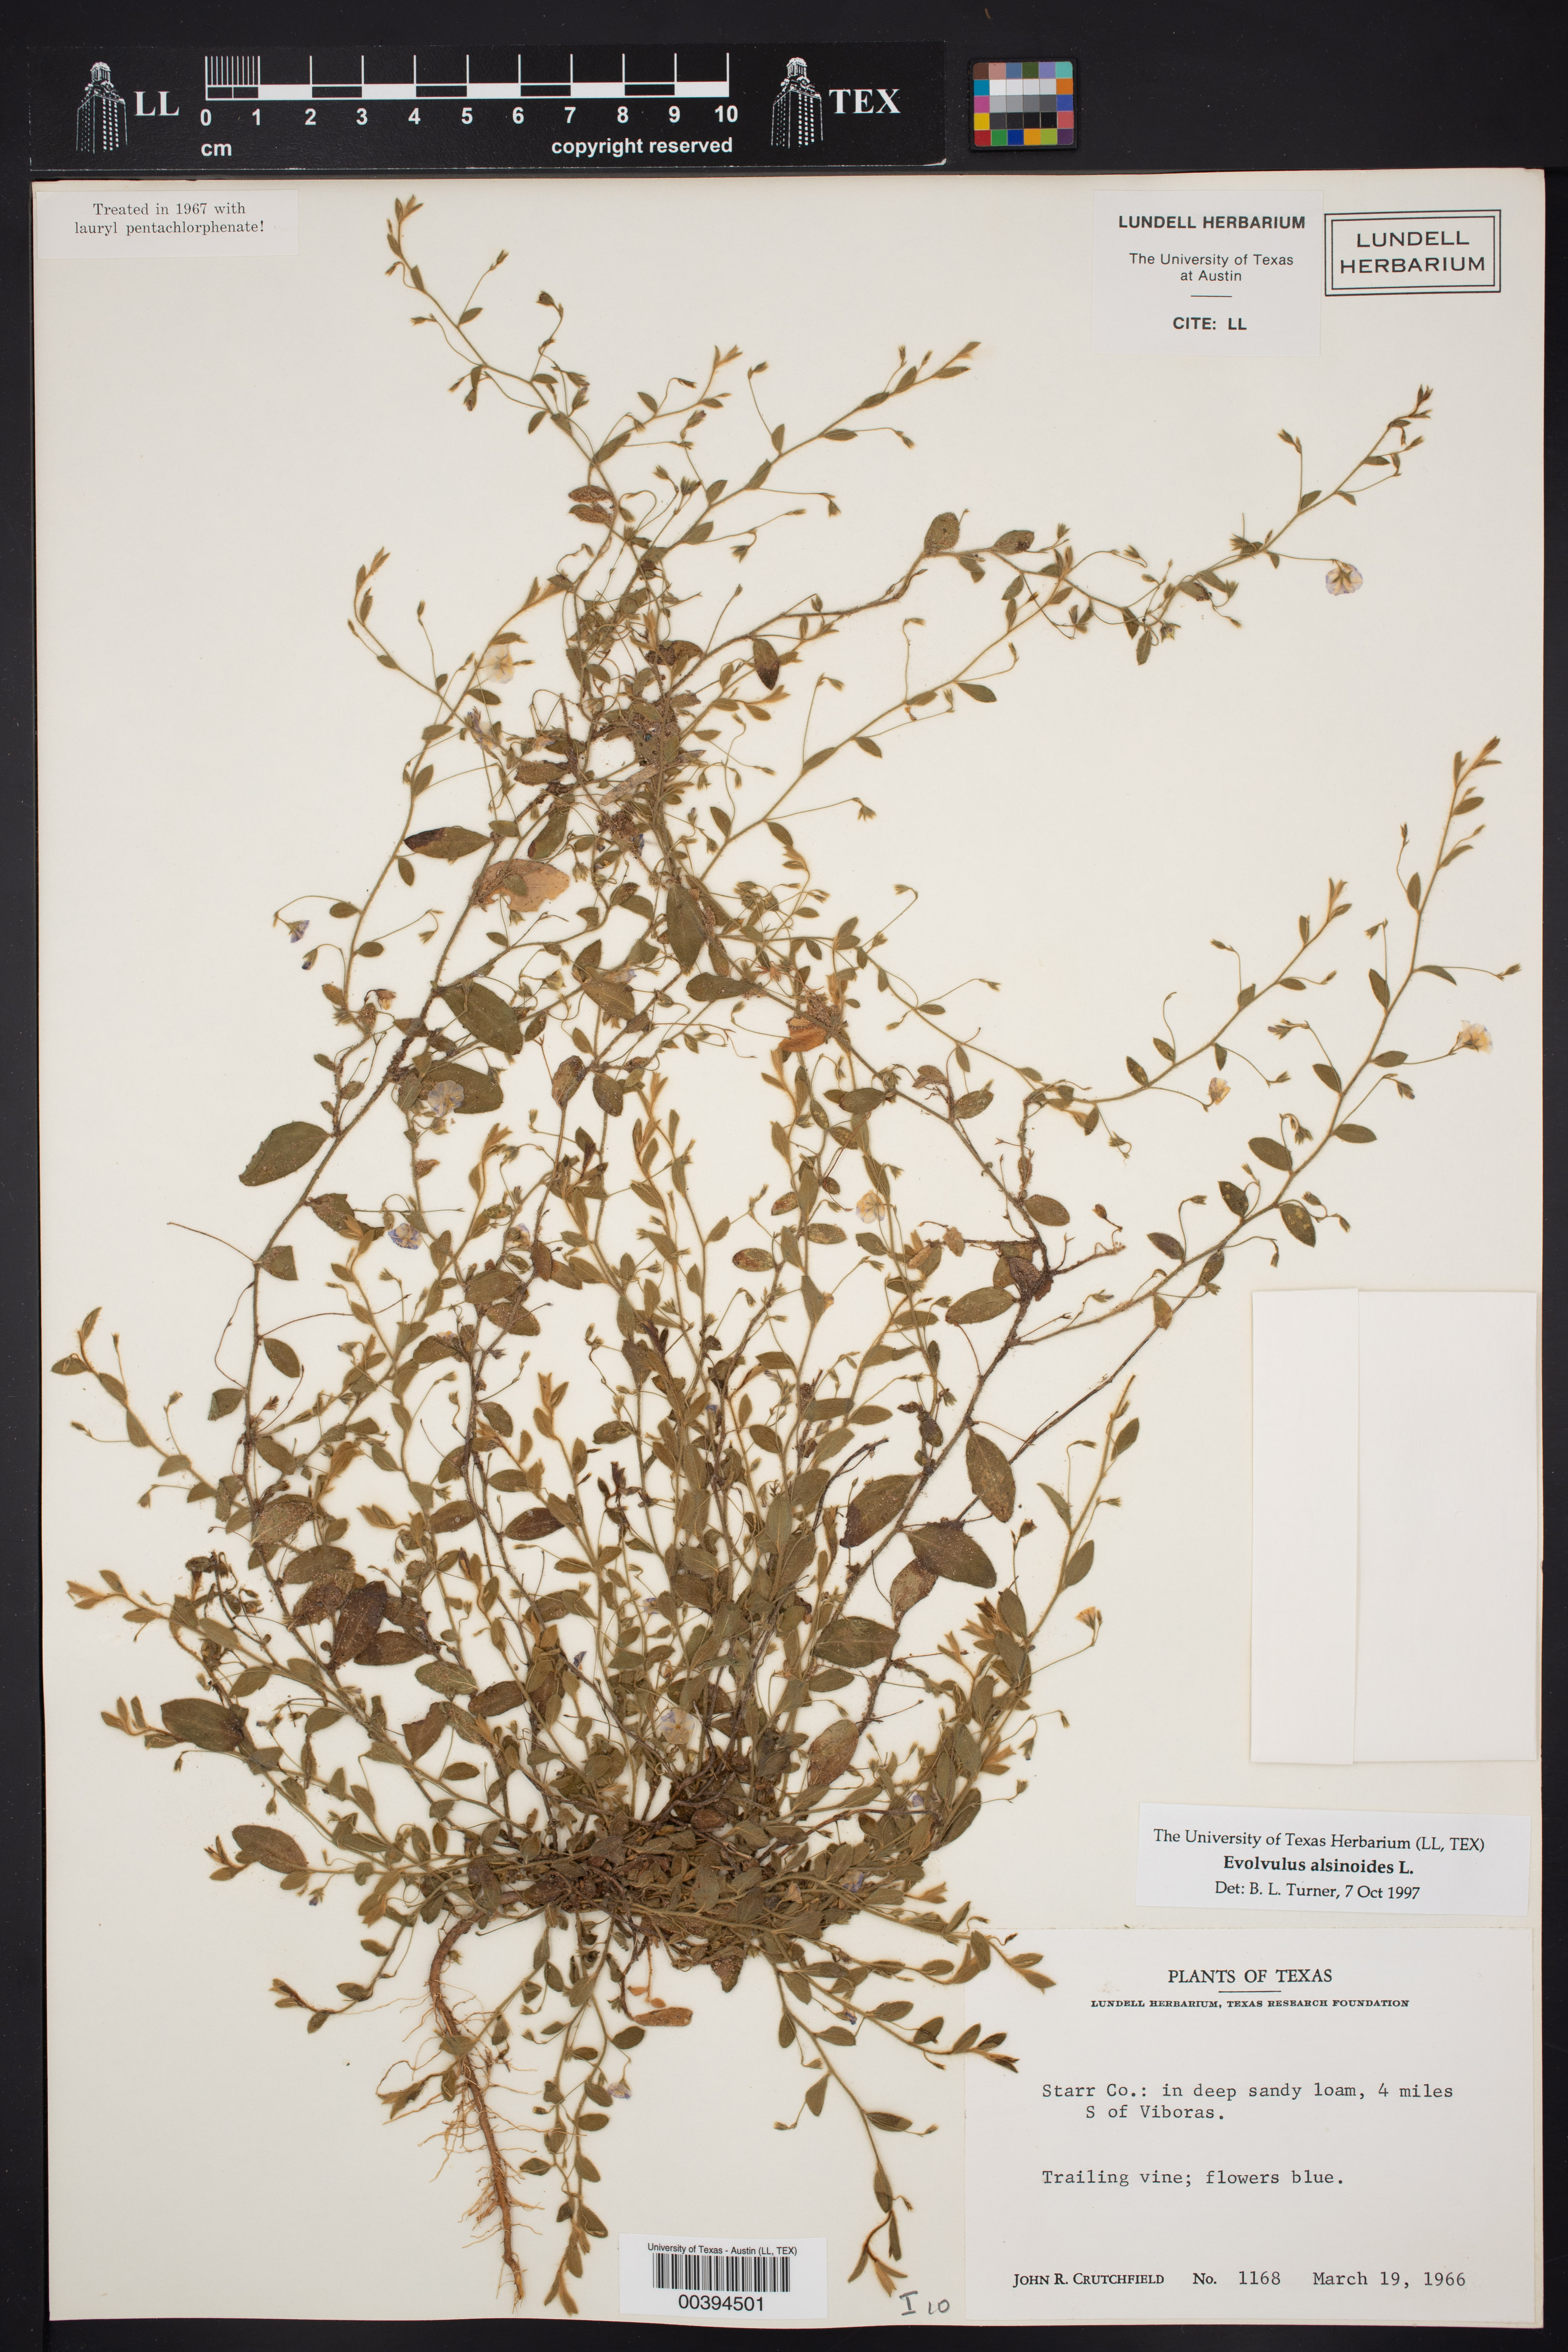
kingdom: Plantae
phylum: Tracheophyta
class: Magnoliopsida
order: Solanales
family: Convolvulaceae
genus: Evolvulus
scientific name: Evolvulus alsinoides
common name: Slender dwarf morning-glory
